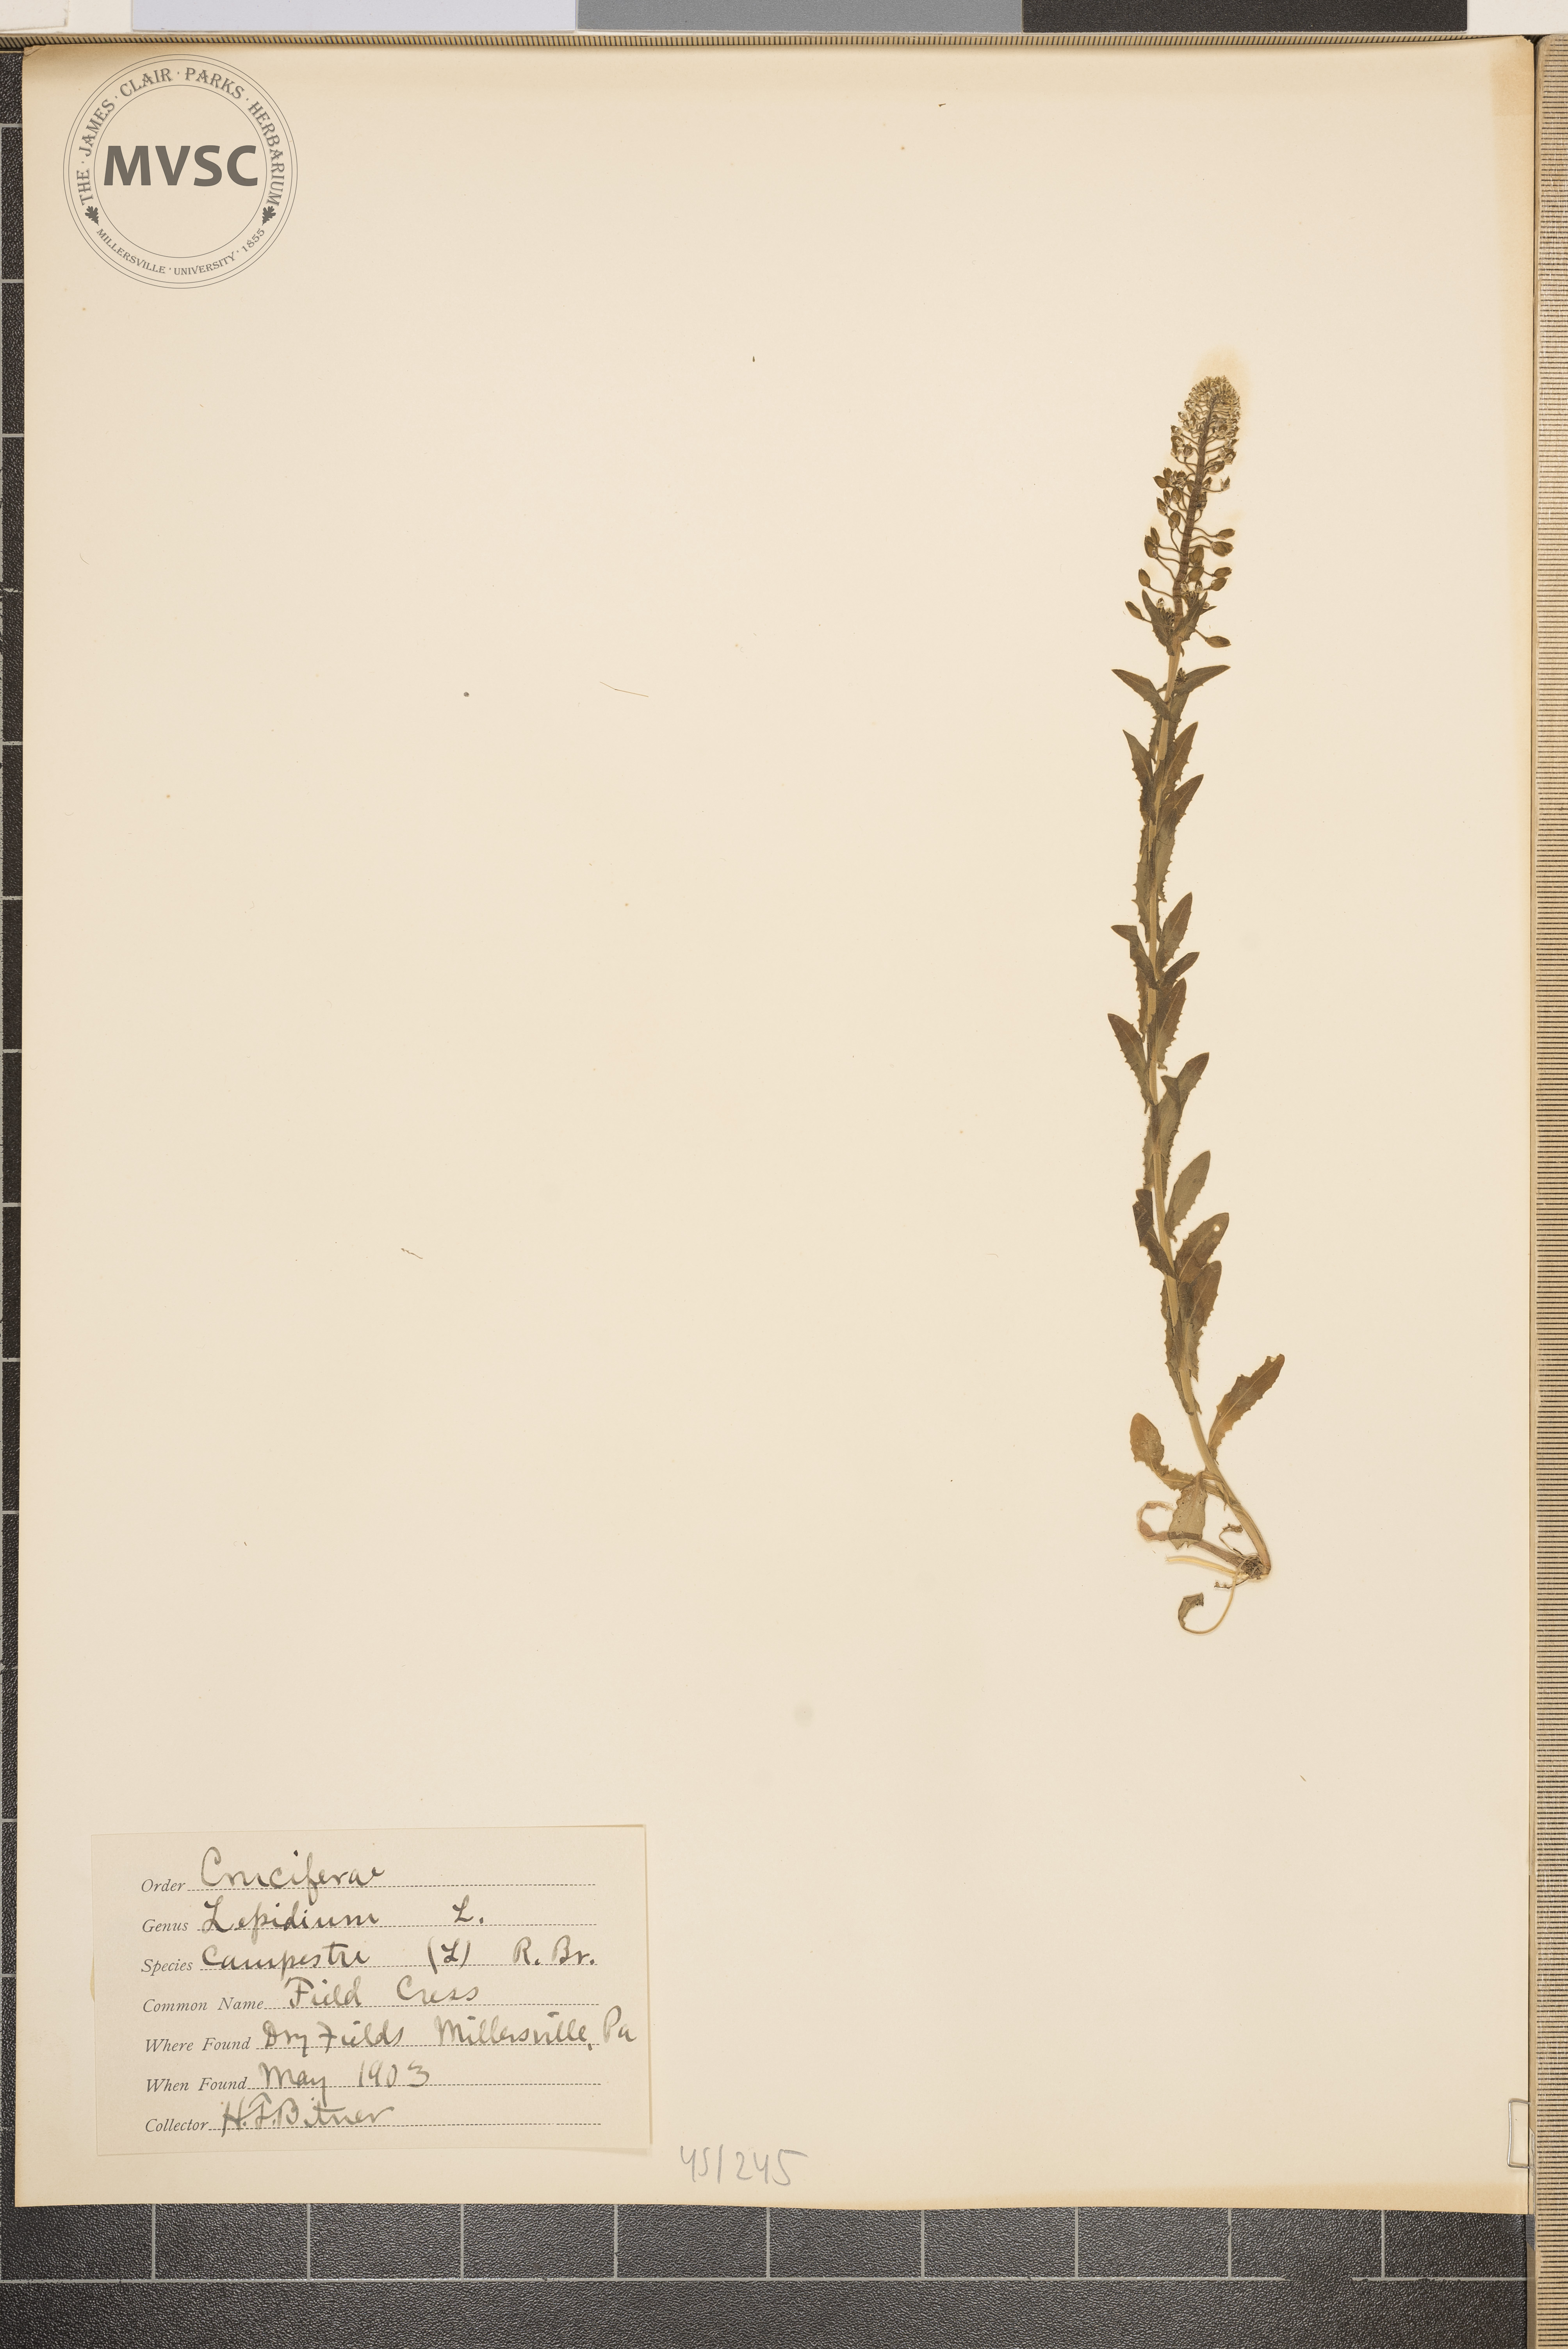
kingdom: Plantae
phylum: Tracheophyta
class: Magnoliopsida
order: Brassicales
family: Brassicaceae
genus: Lepidium
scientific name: Lepidium campestre
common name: Field pepperwort
